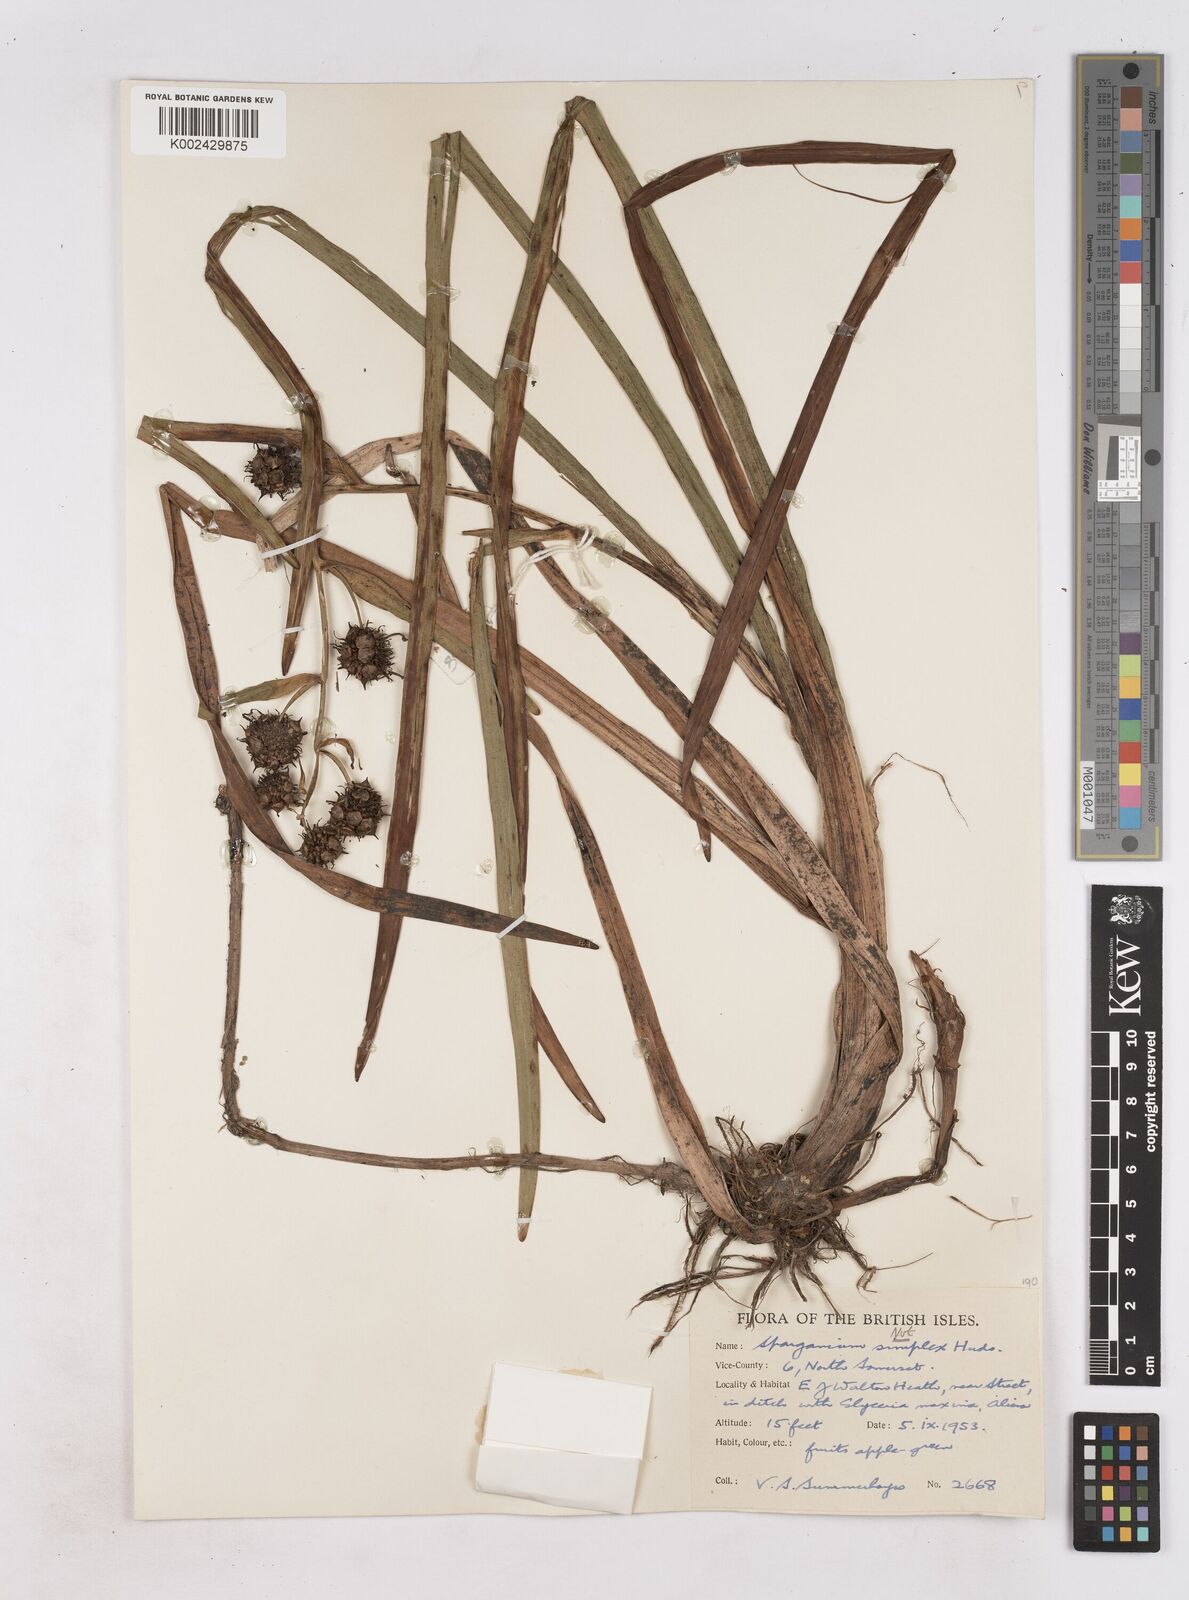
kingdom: Plantae
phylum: Tracheophyta
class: Liliopsida
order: Poales
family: Typhaceae
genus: Sparganium
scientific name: Sparganium erectum
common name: Branched bur-reed
